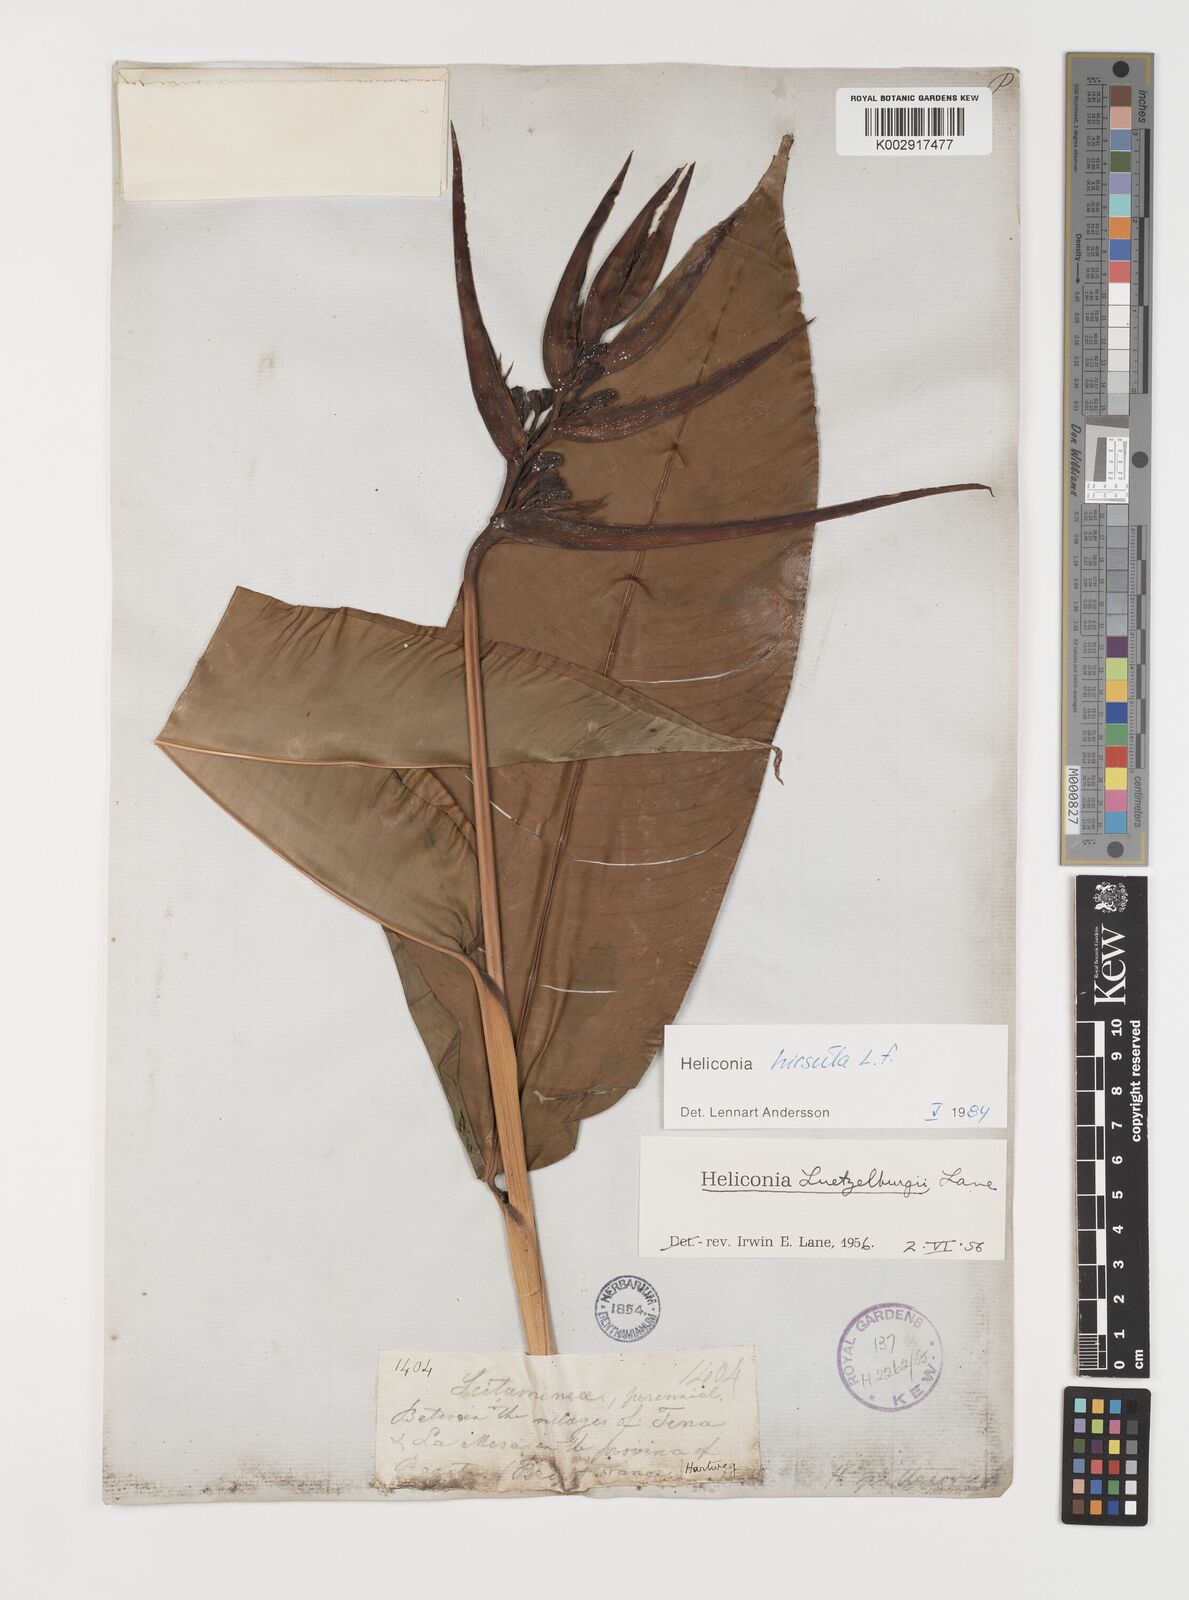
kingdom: Plantae
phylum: Tracheophyta
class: Liliopsida
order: Zingiberales
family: Heliconiaceae
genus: Heliconia
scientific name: Heliconia schiedeana
